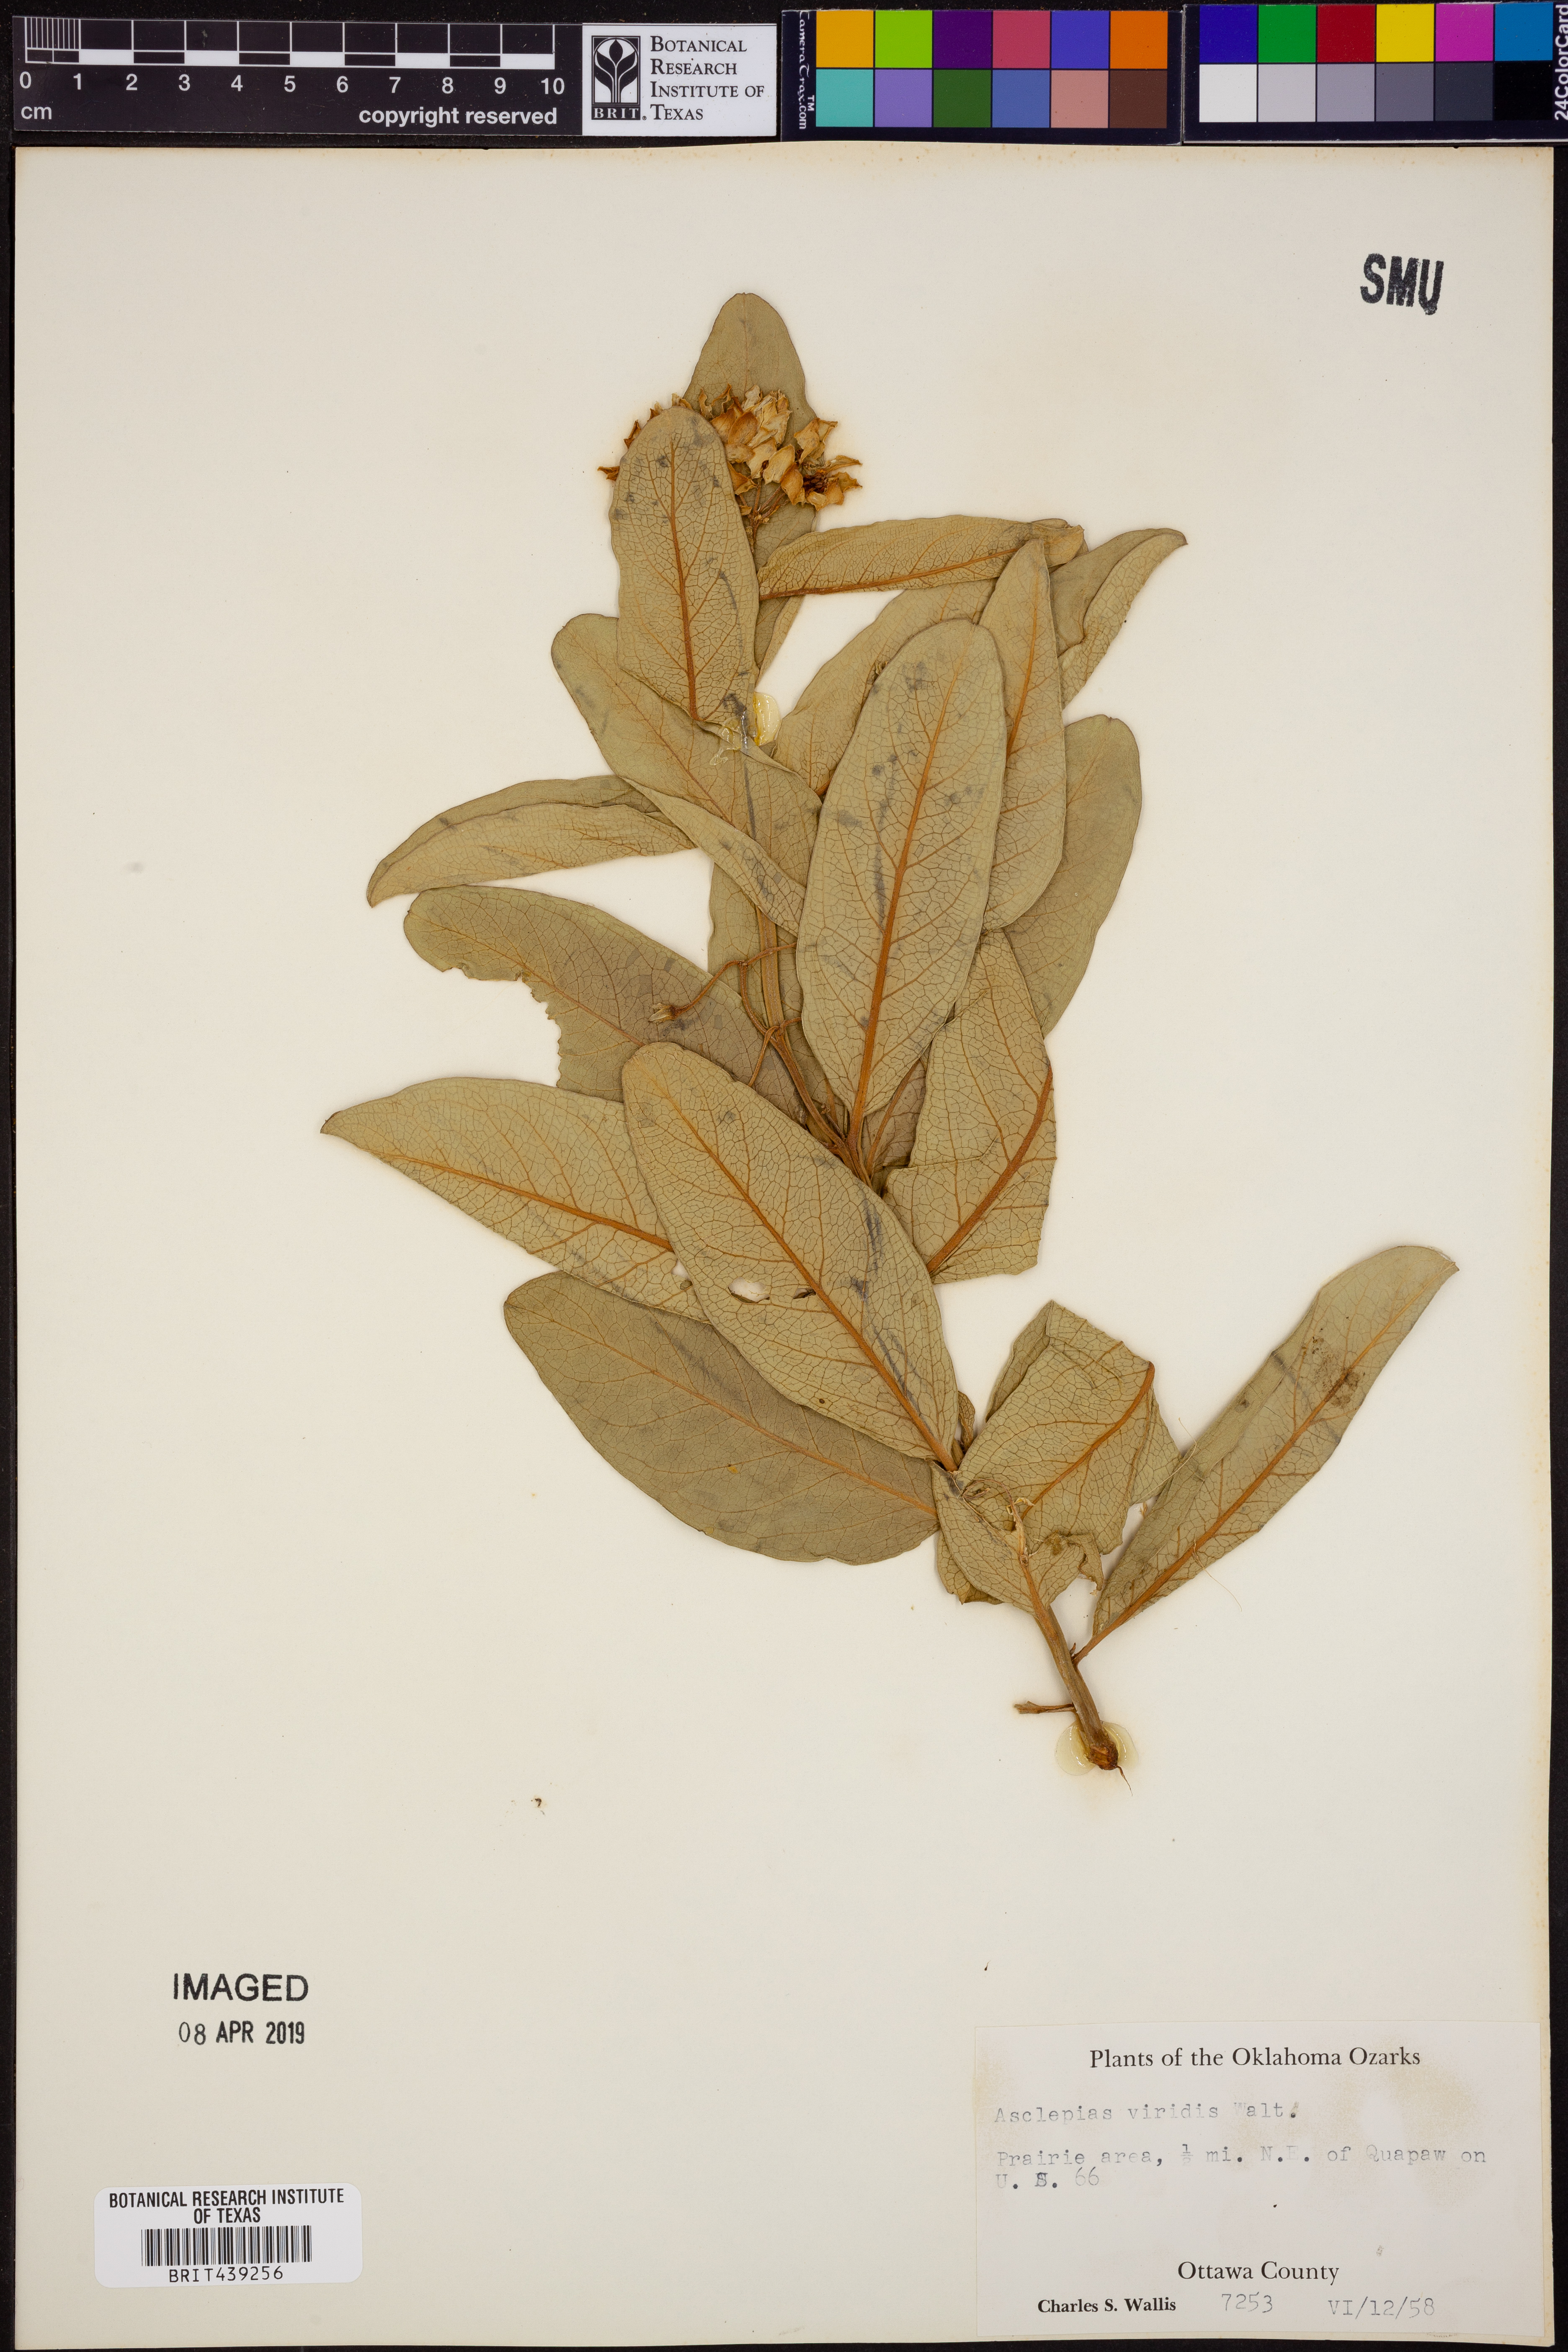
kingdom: Plantae
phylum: Tracheophyta
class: Magnoliopsida
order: Gentianales
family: Apocynaceae
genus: Asclepias
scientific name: Asclepias viridis
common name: Antelope-horns
